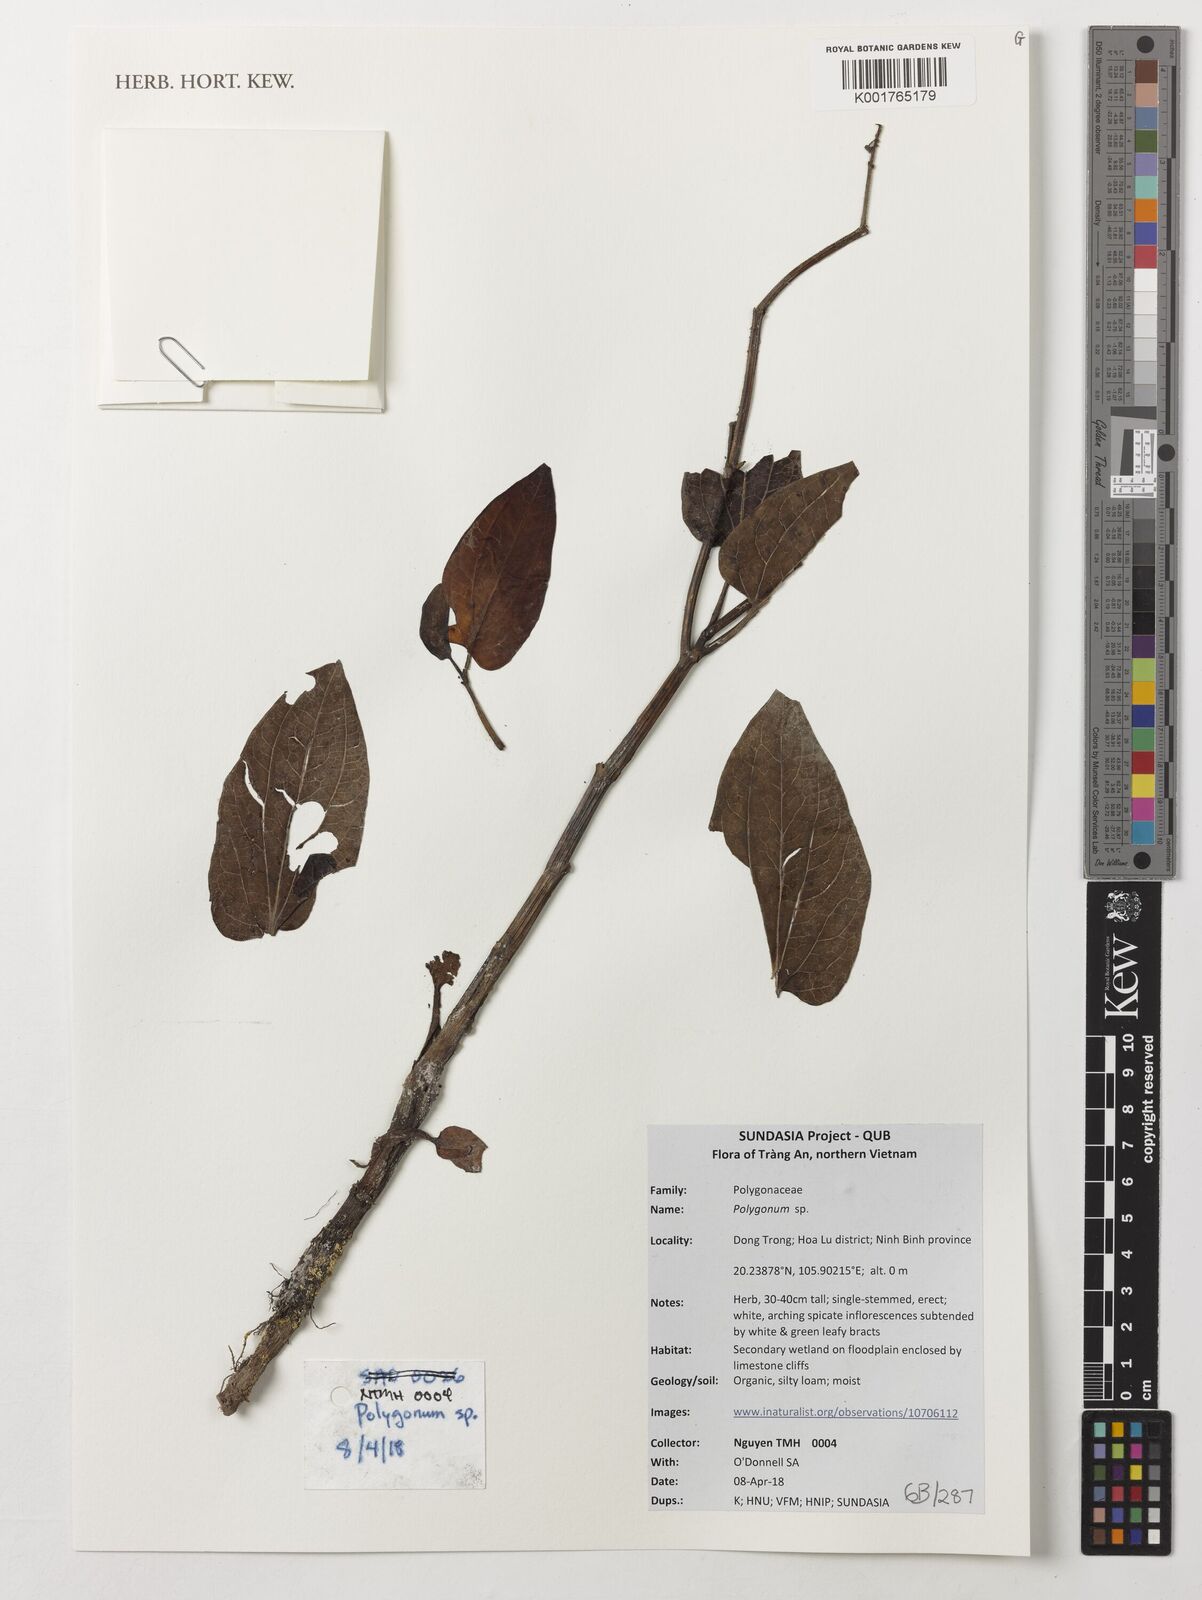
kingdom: Plantae
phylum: Tracheophyta
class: Magnoliopsida
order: Caryophyllales
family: Polygonaceae
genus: Polygonum
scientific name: Polygonum
